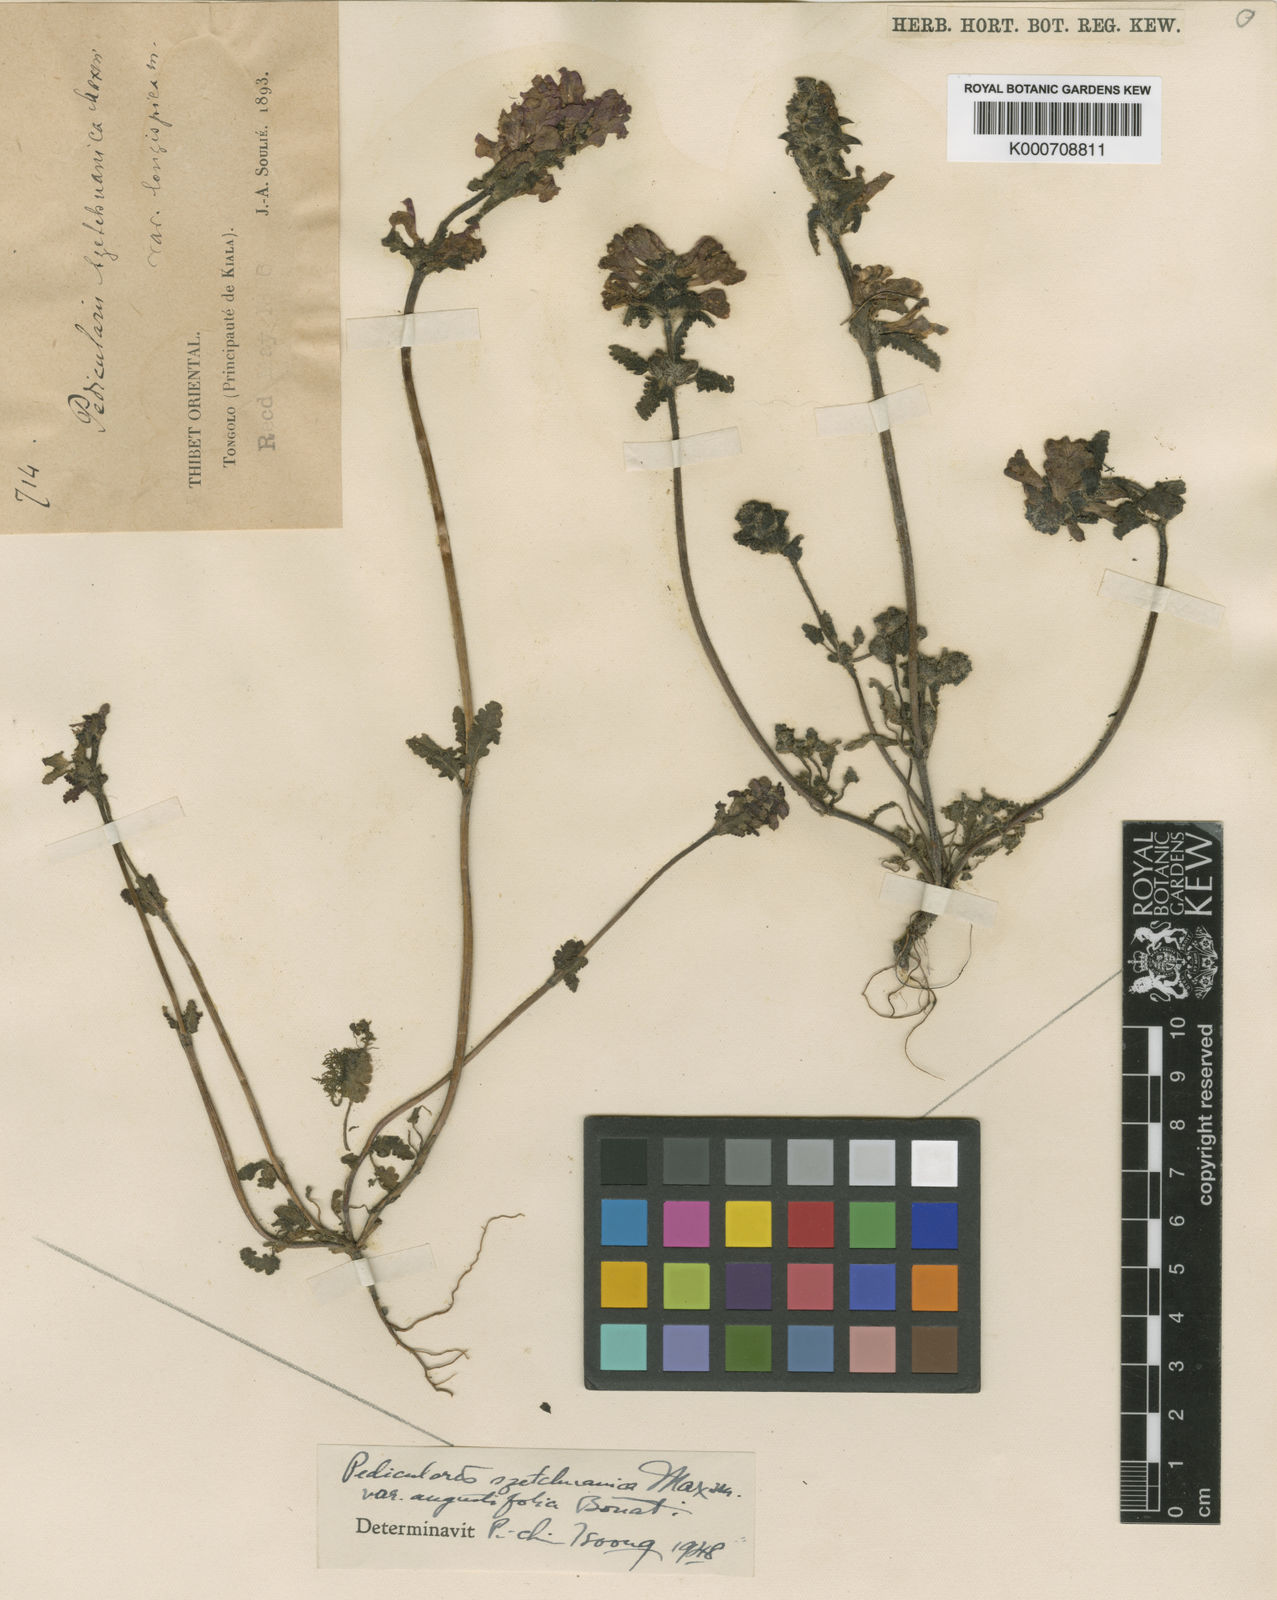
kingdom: Plantae
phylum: Tracheophyta
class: Magnoliopsida
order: Lamiales
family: Orobanchaceae
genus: Pedicularis
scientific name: Pedicularis szetschuanica
